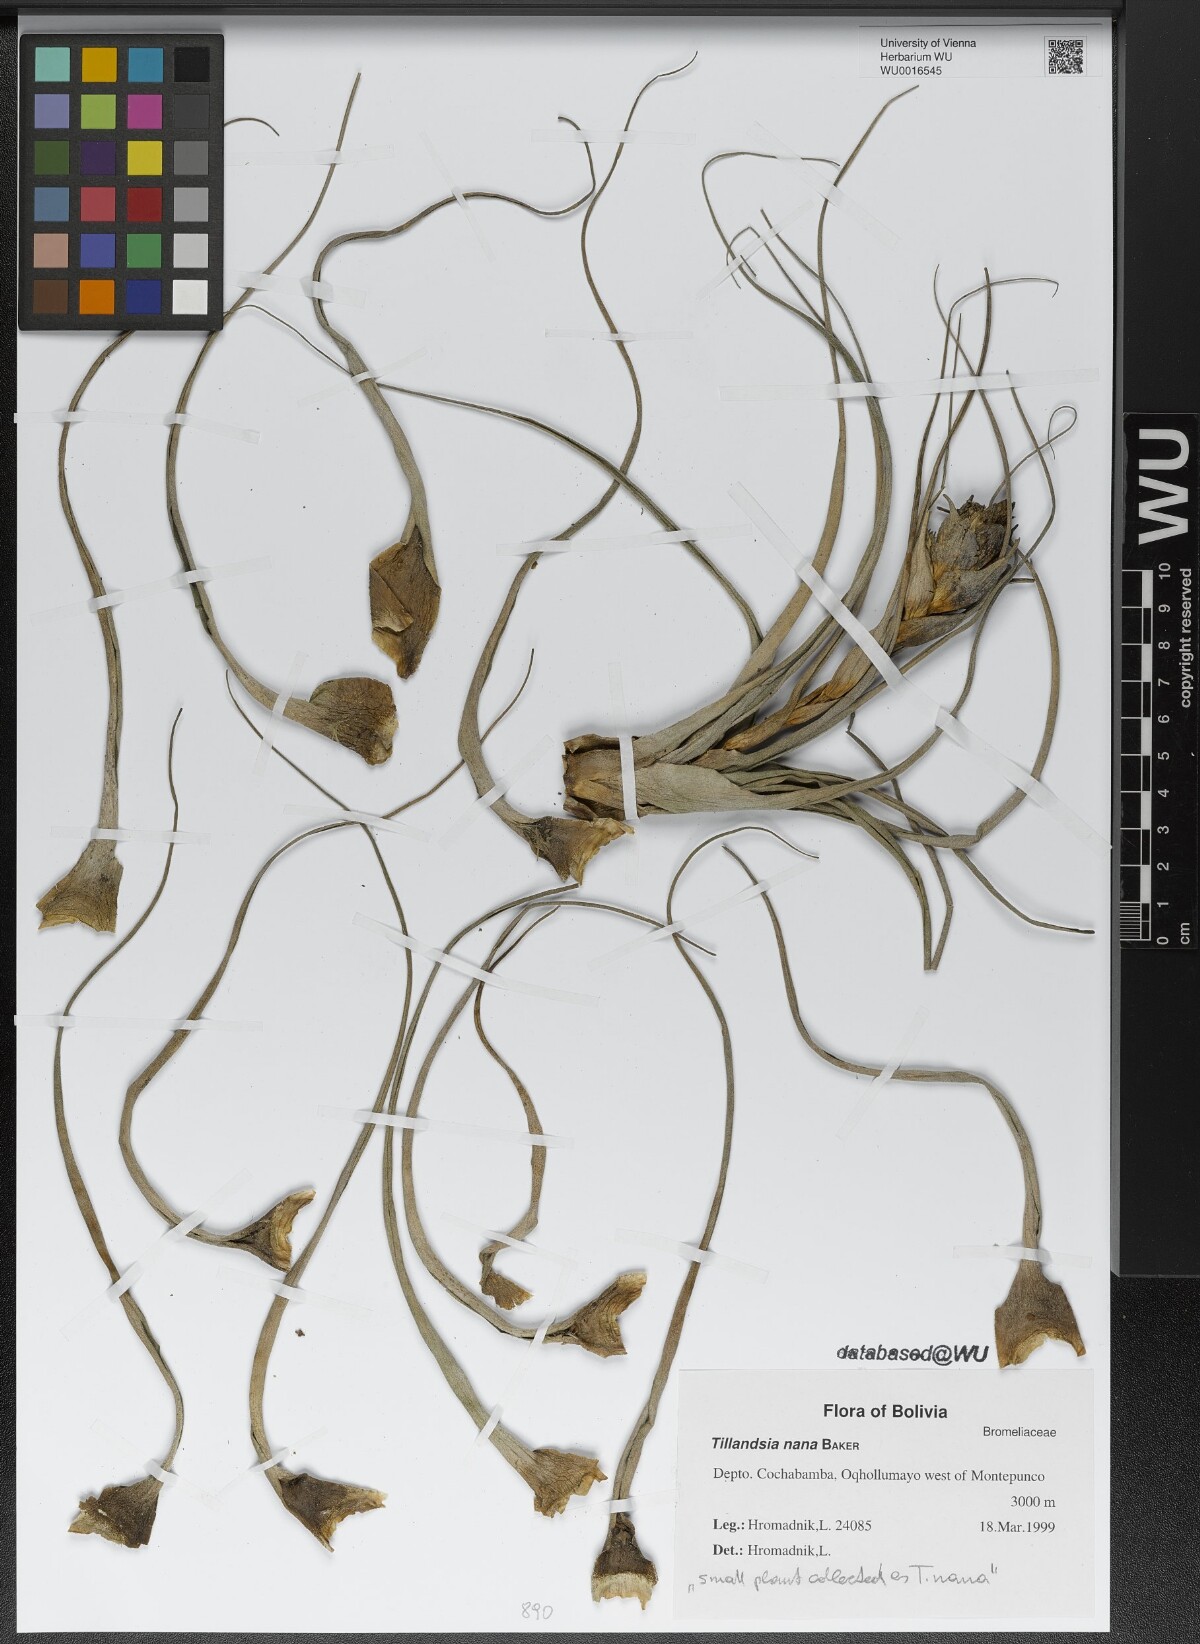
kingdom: Plantae
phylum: Tracheophyta
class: Liliopsida
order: Poales
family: Bromeliaceae
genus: Tillandsia
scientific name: Tillandsia nana
